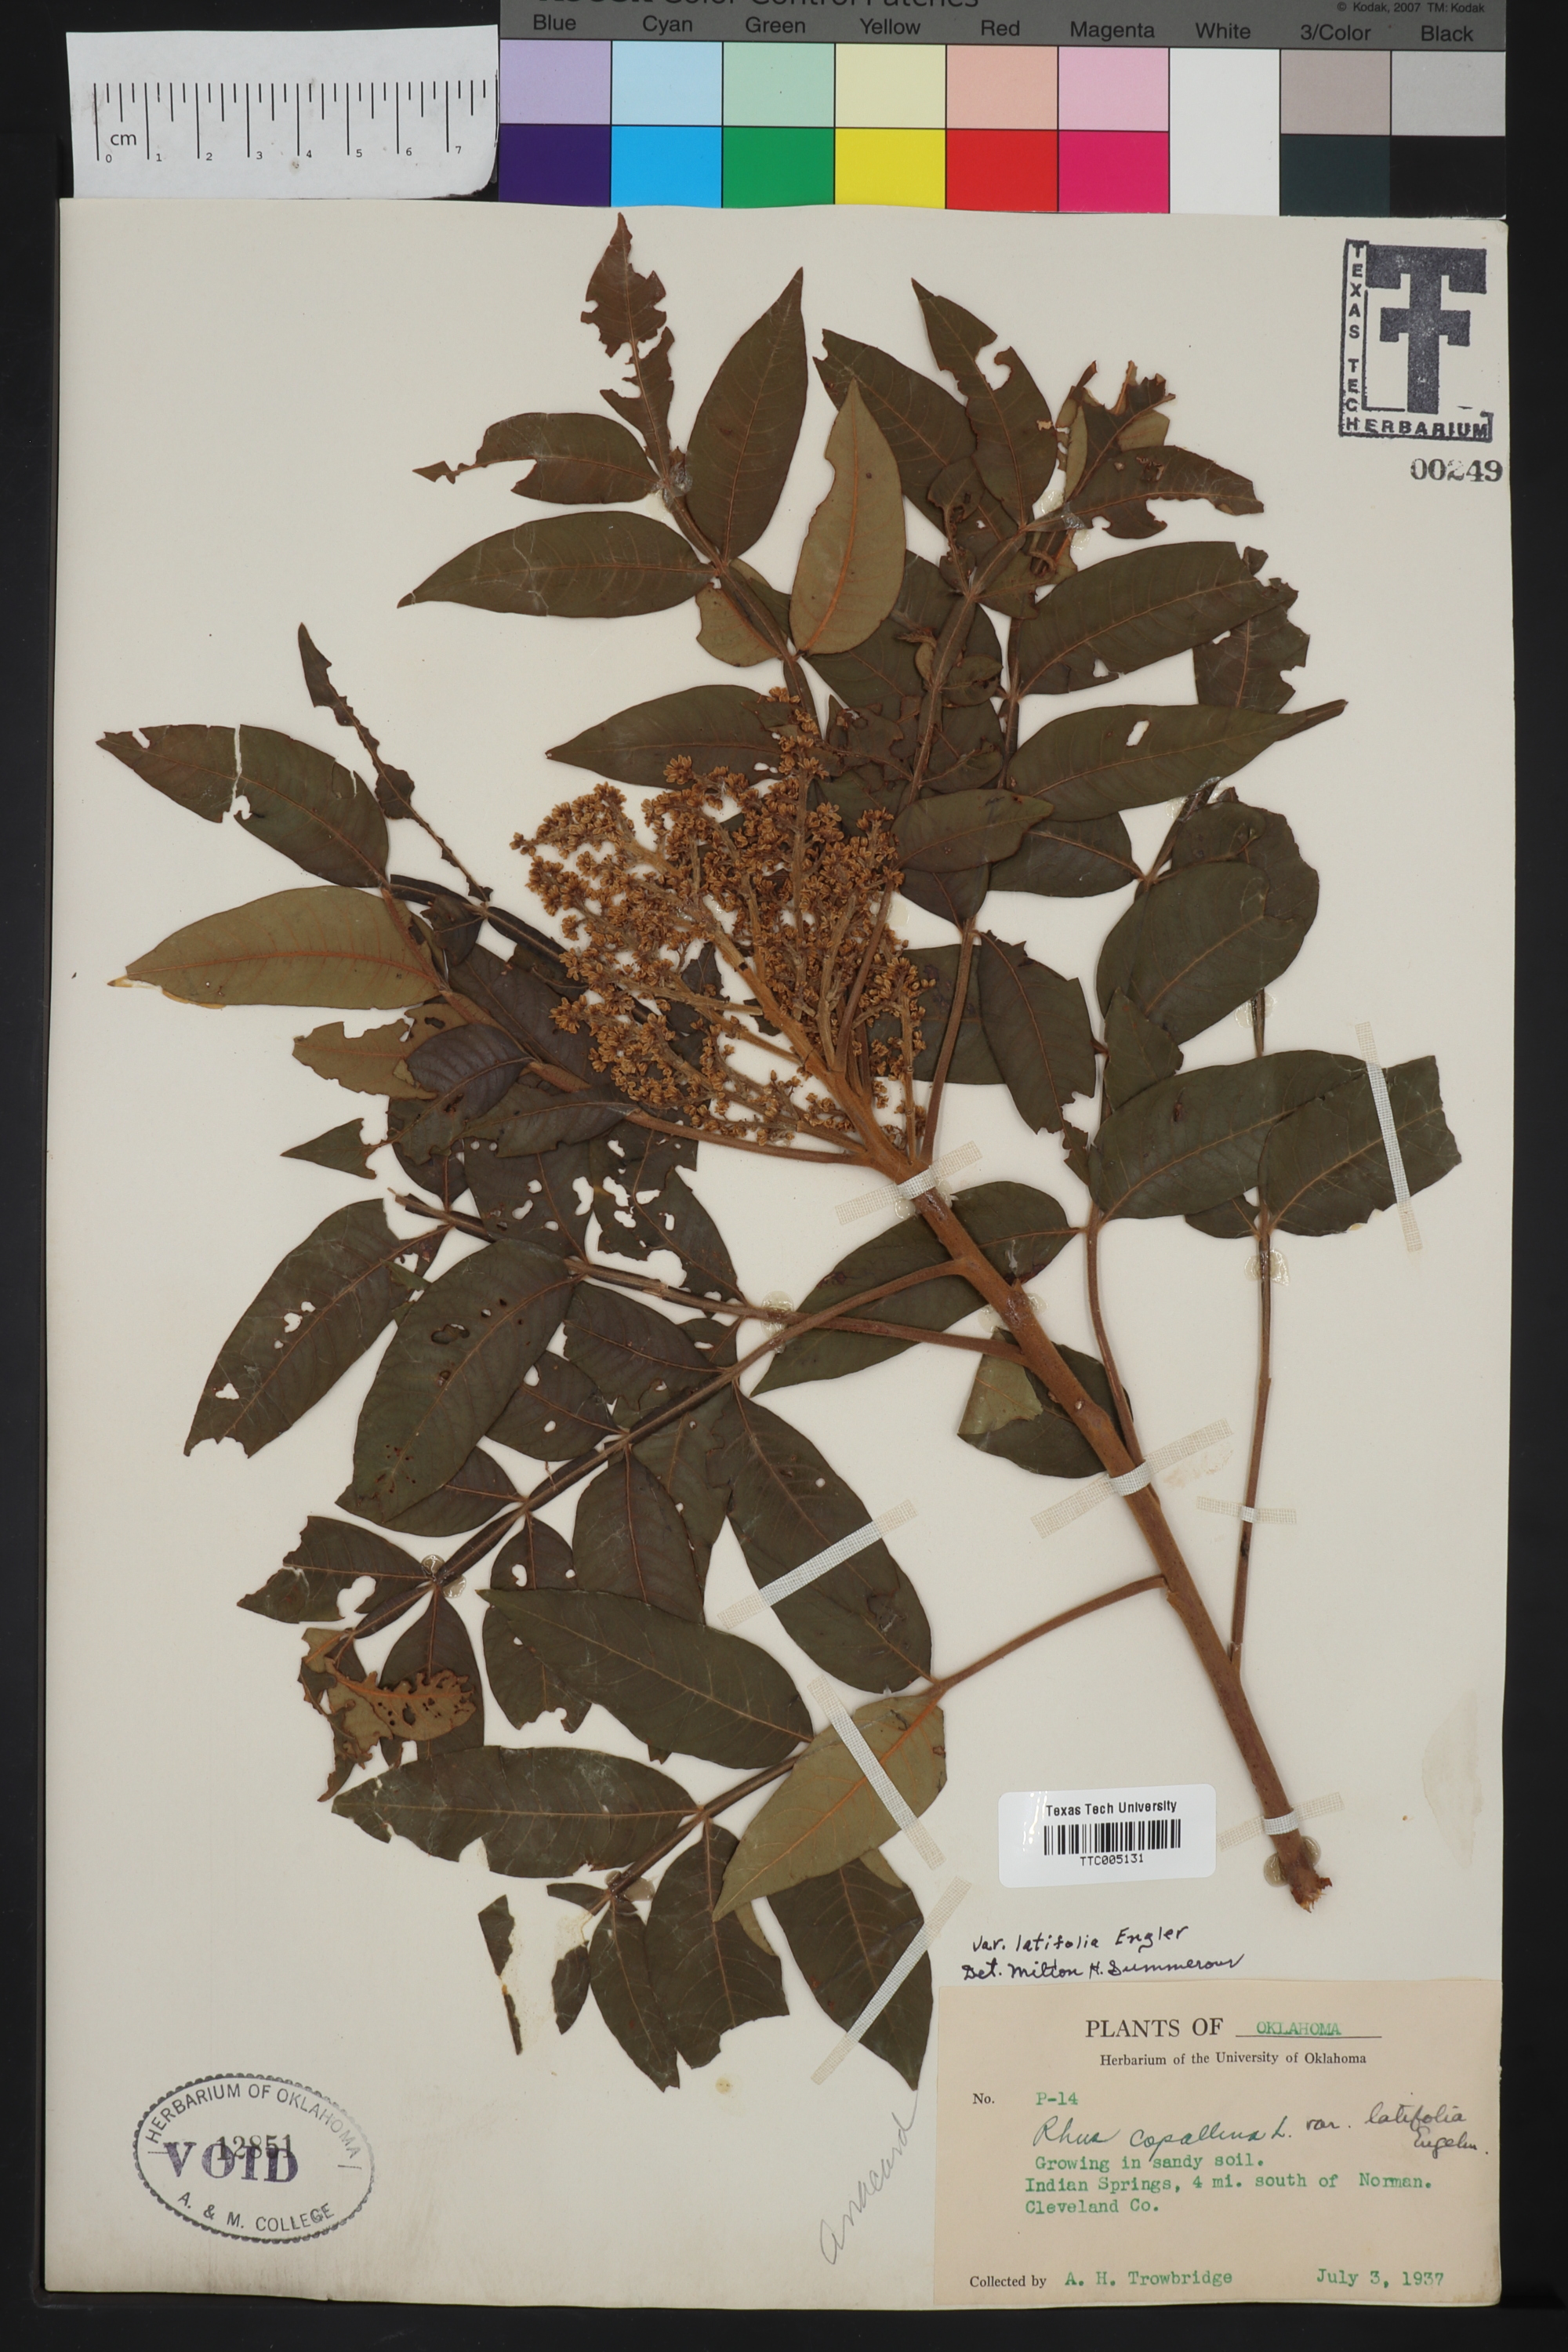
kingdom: Plantae
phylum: Tracheophyta
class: Magnoliopsida
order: Sapindales
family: Anacardiaceae
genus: Rhus
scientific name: Rhus copallina
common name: Shining sumac
